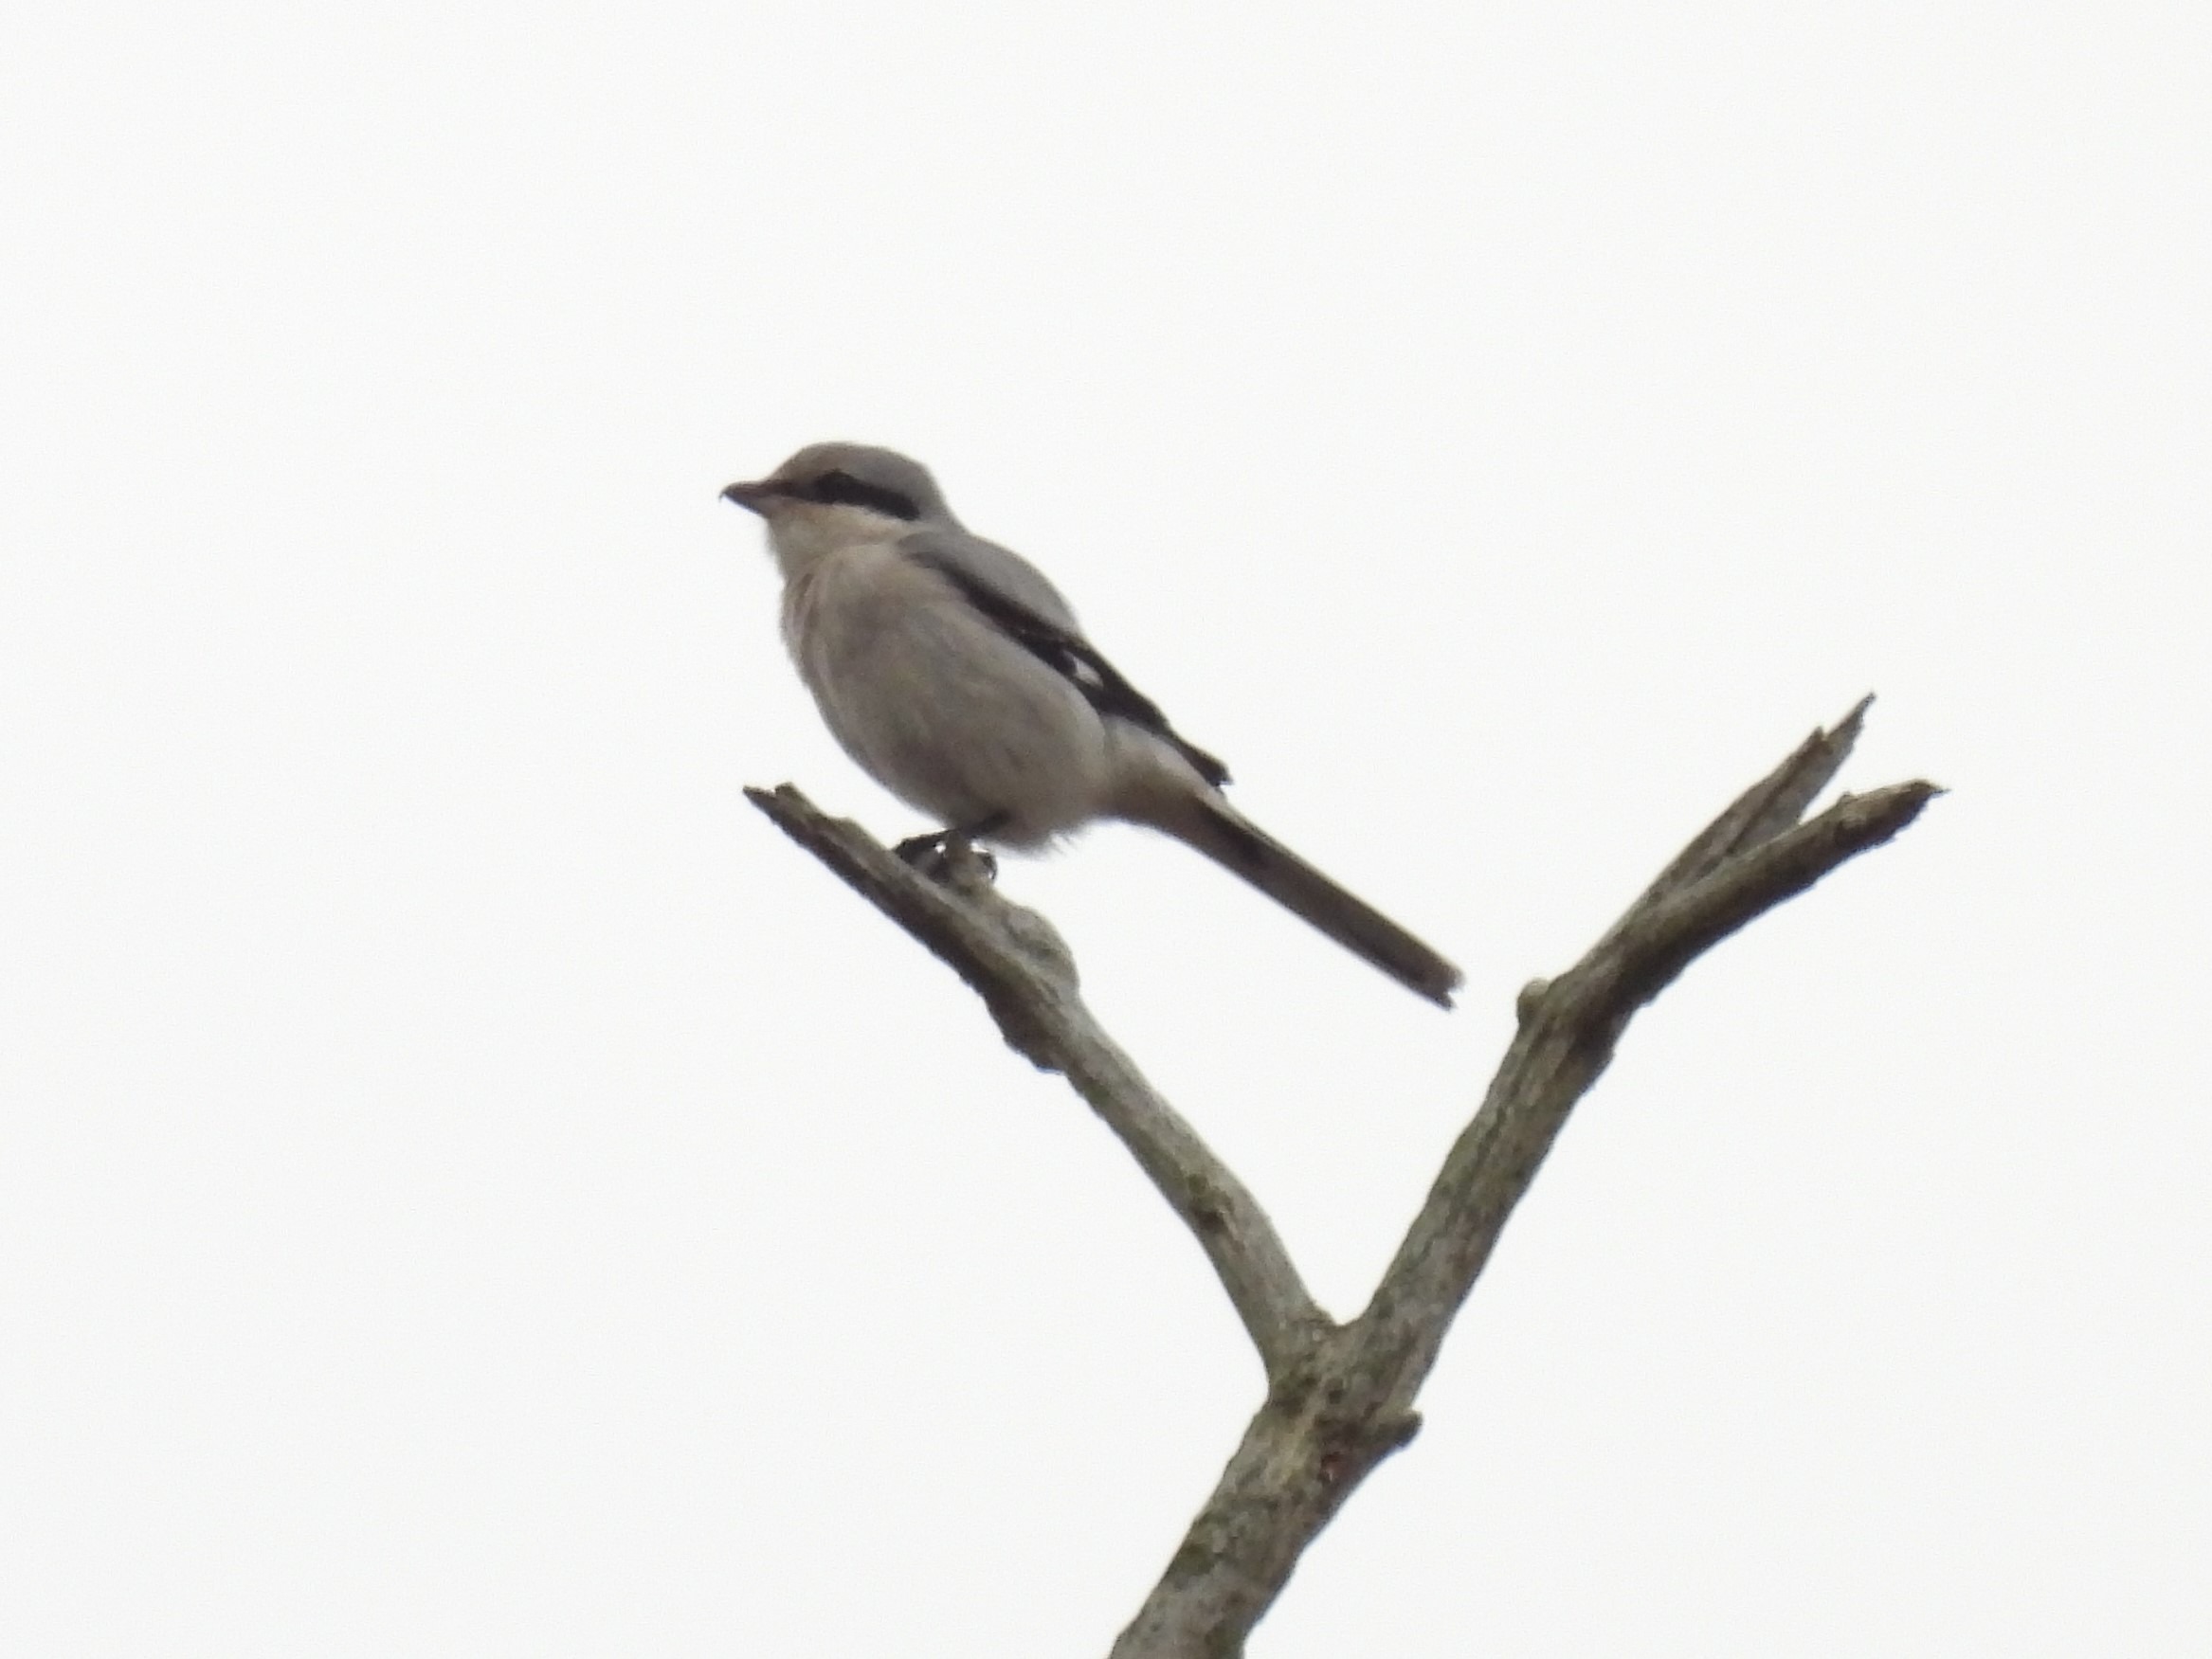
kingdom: Animalia
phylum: Chordata
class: Aves
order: Passeriformes
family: Laniidae
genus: Lanius
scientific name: Lanius excubitor
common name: Stor tornskade
